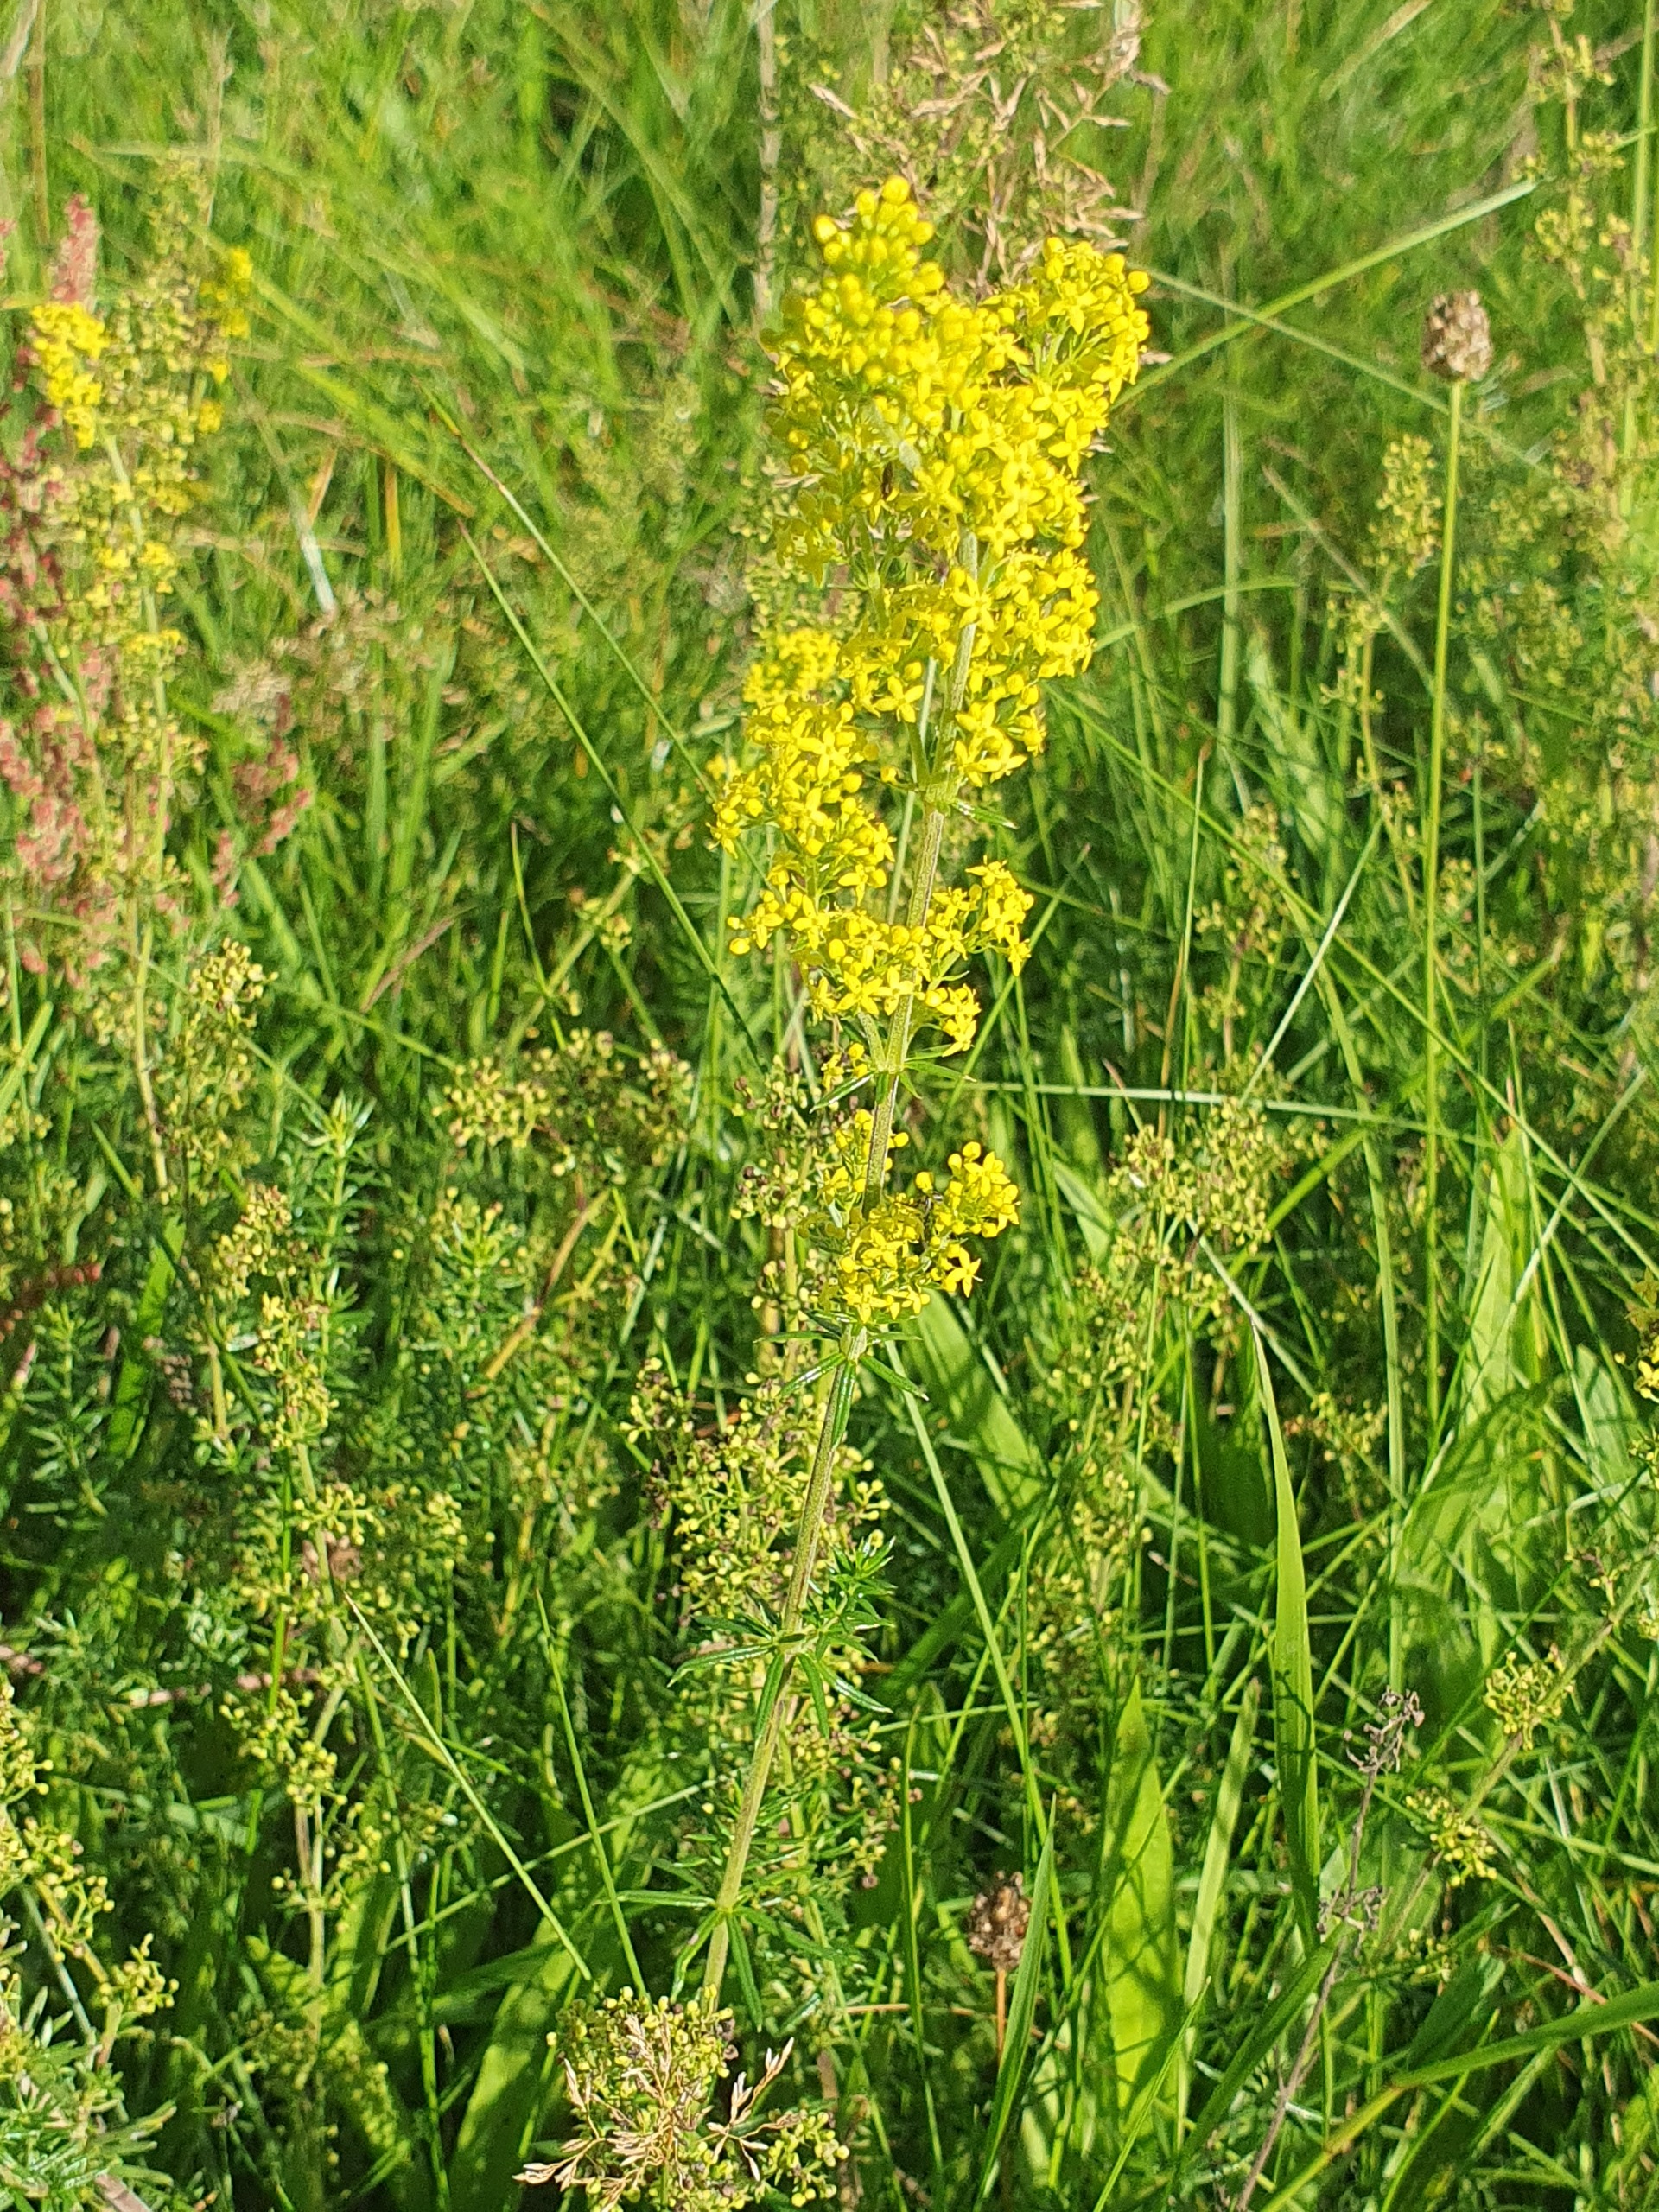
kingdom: Plantae
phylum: Tracheophyta
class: Magnoliopsida
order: Gentianales
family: Rubiaceae
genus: Galium
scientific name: Galium verum
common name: Gul snerre
